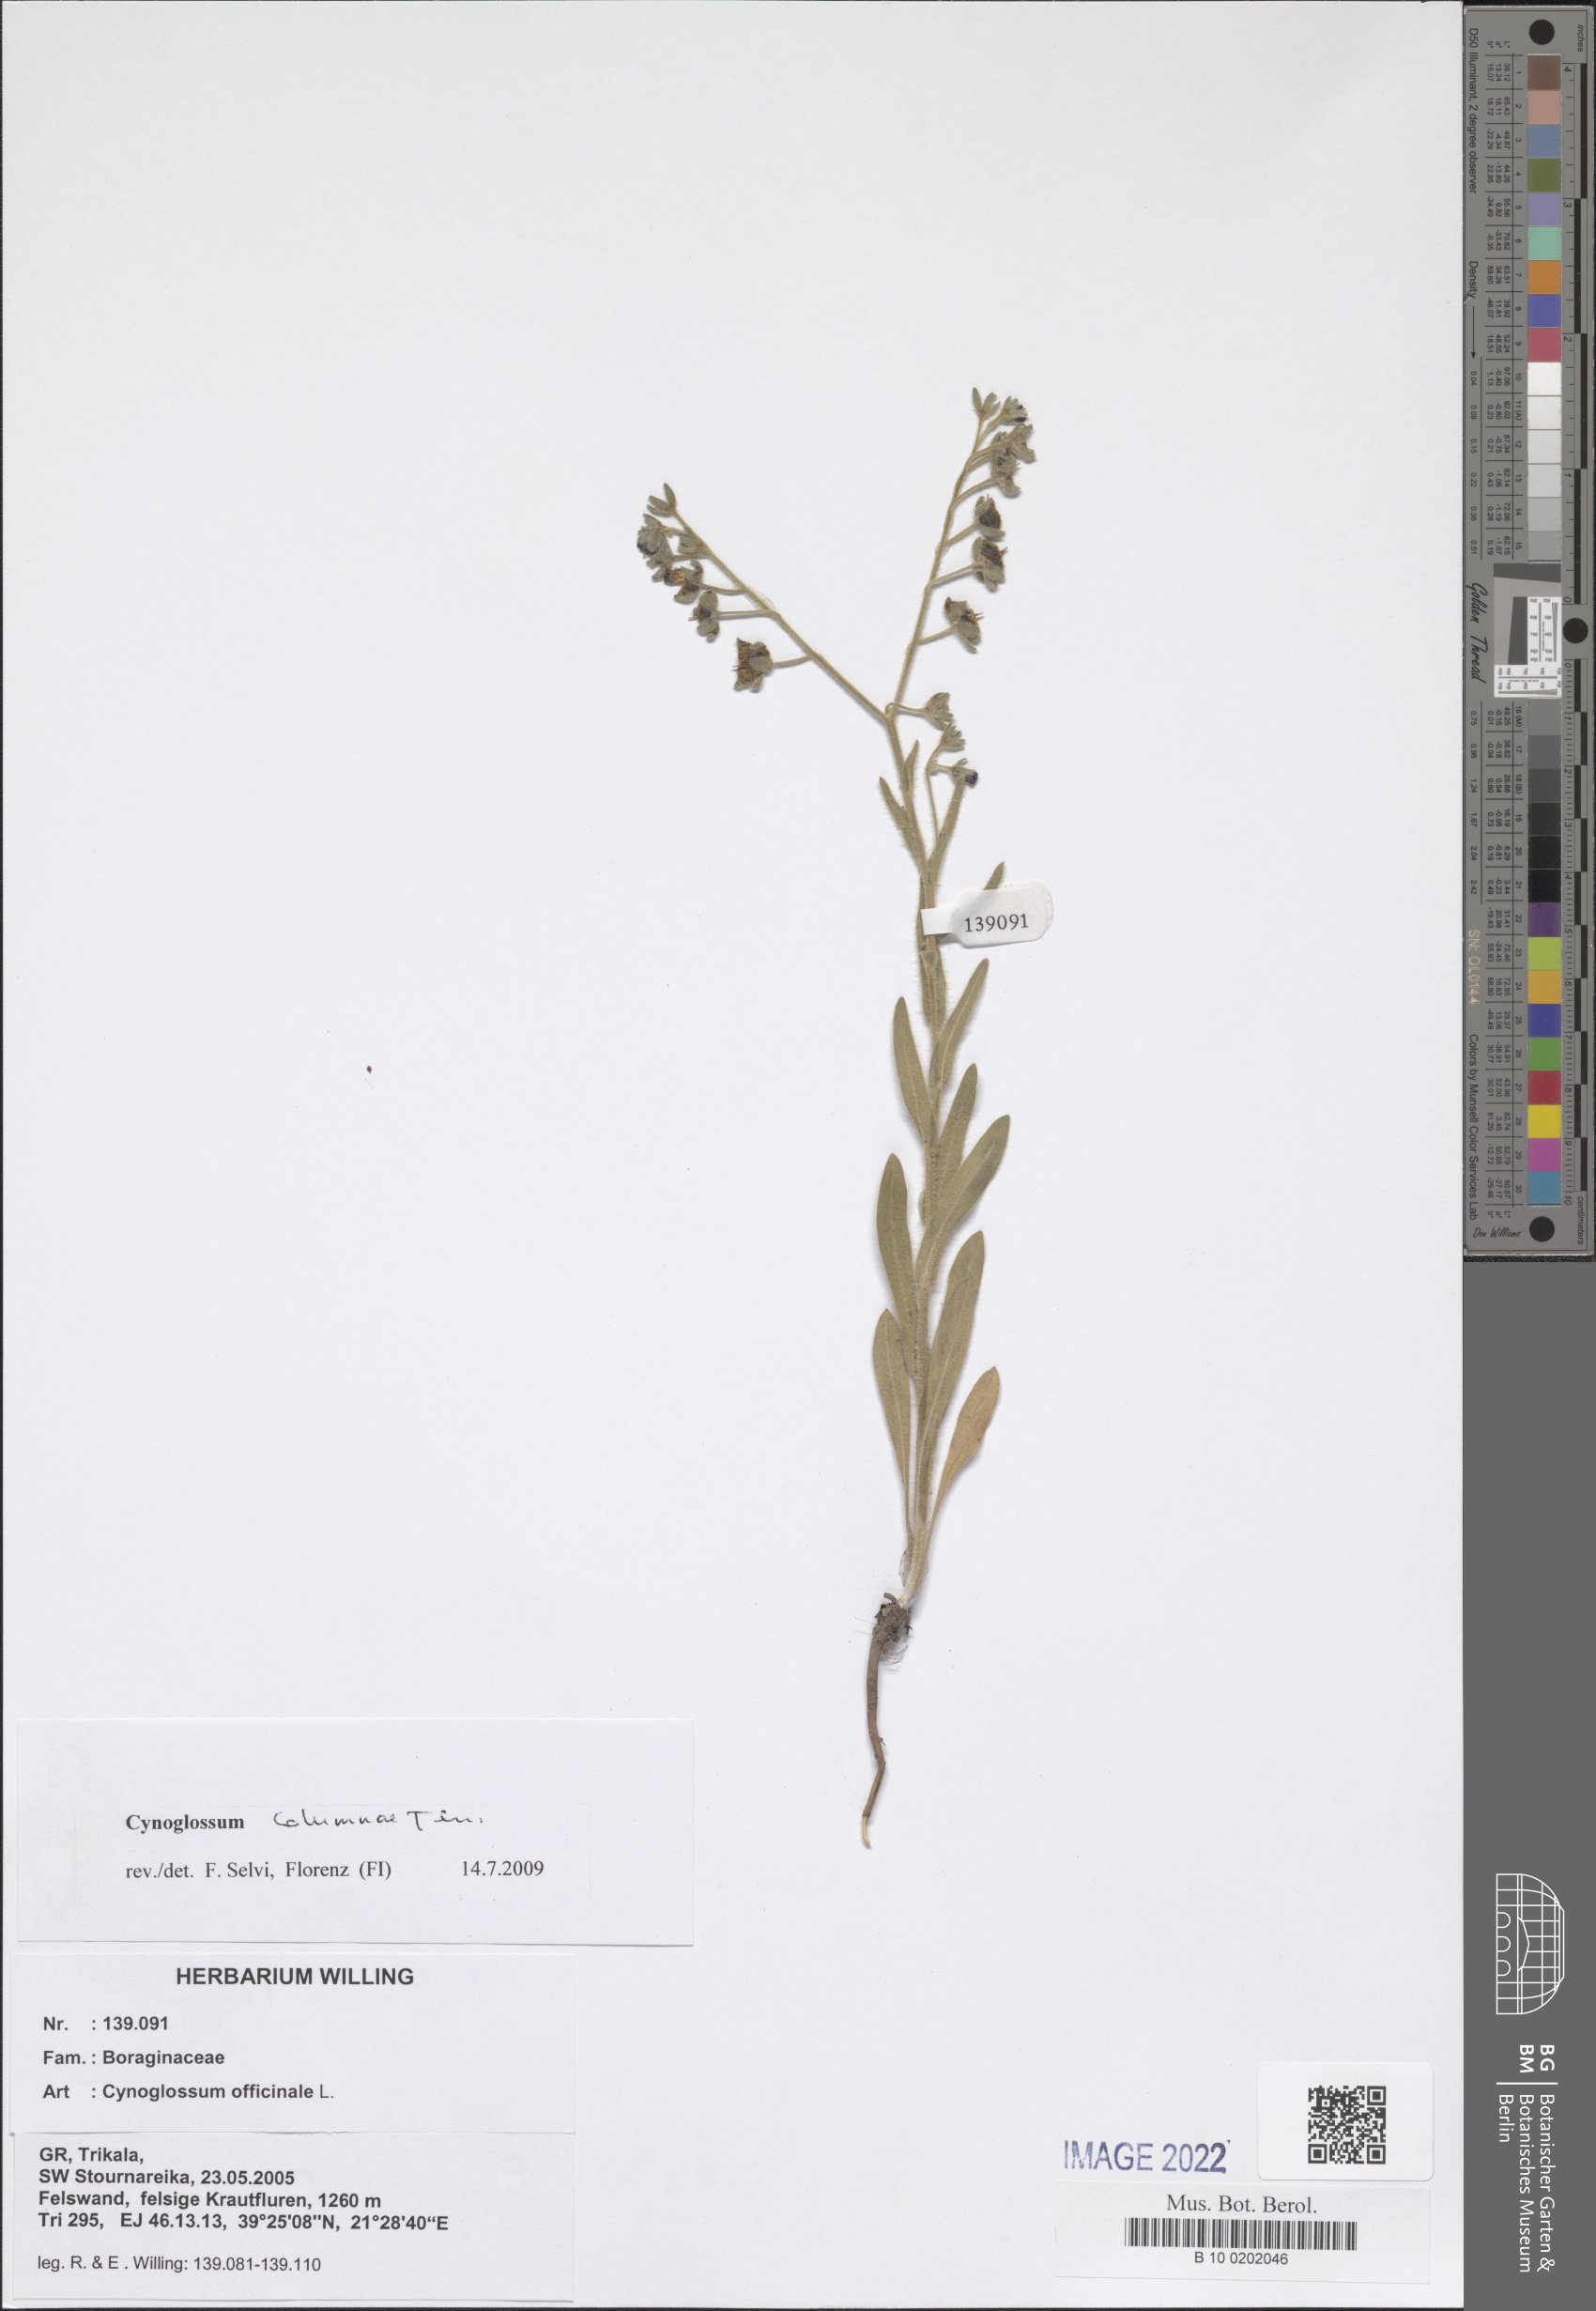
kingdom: Plantae
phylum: Tracheophyta
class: Magnoliopsida
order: Boraginales
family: Boraginaceae
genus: Rindera
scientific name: Rindera columnae
